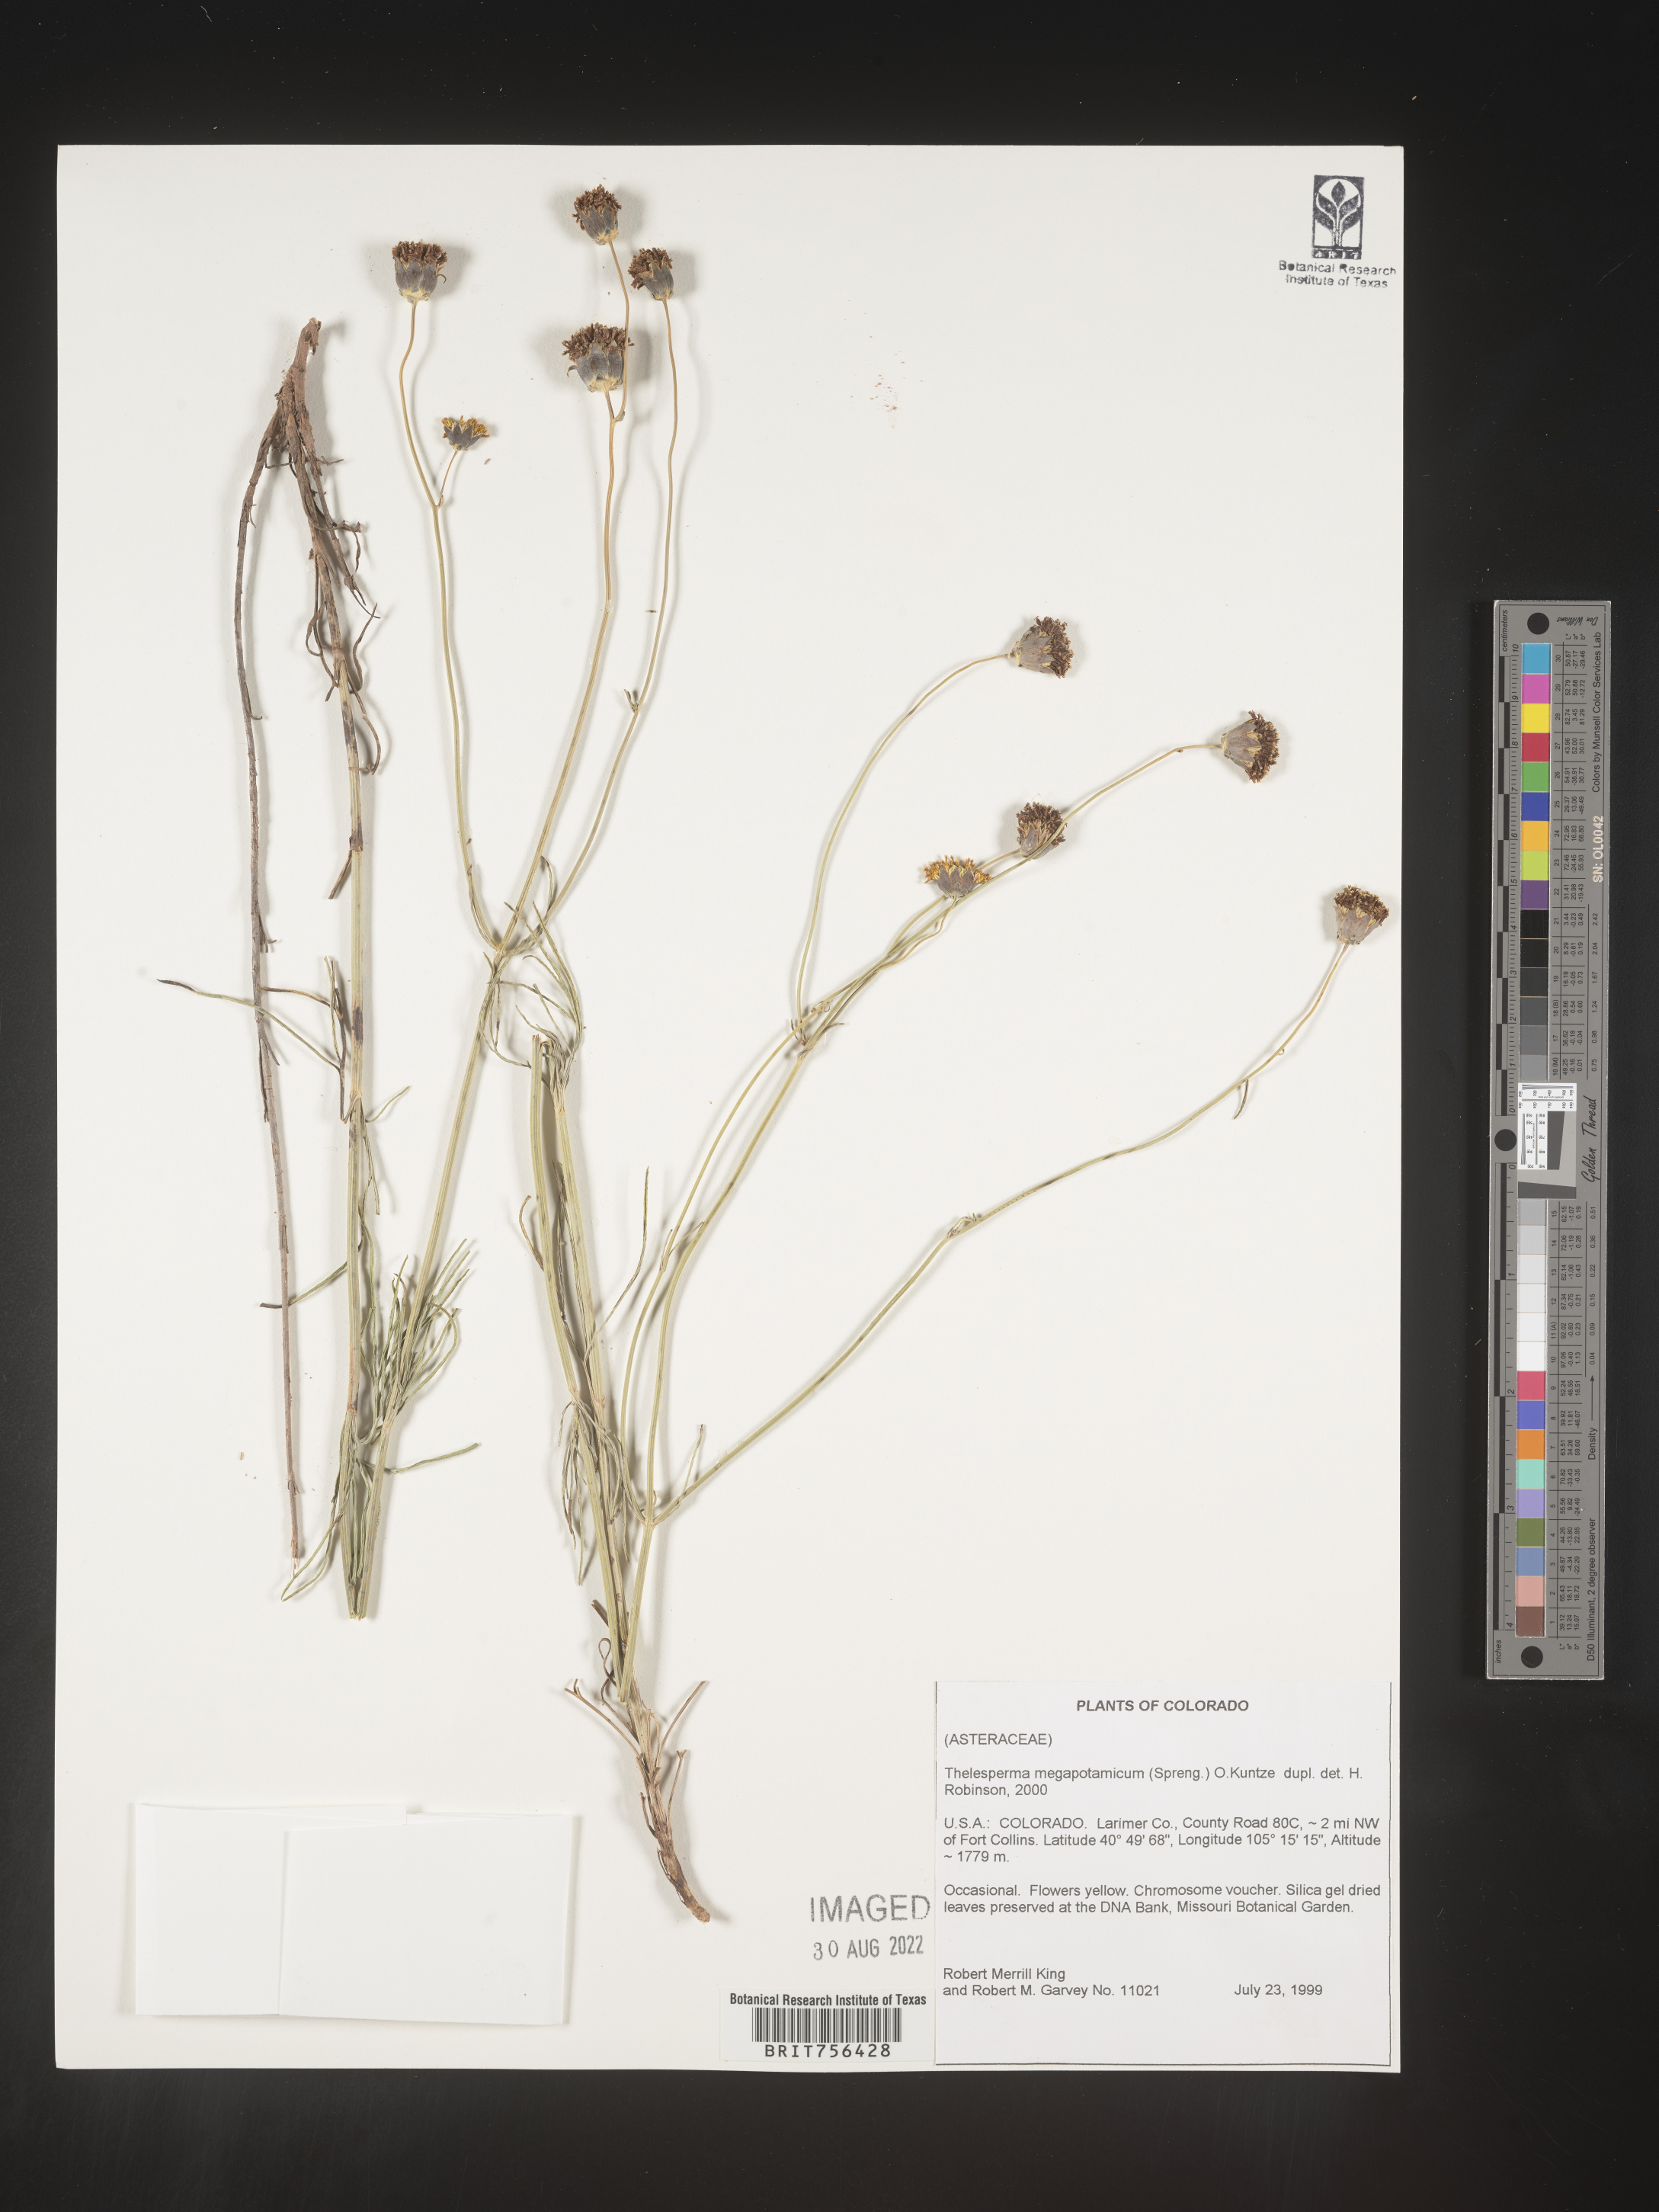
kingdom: Plantae
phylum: Tracheophyta
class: Magnoliopsida
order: Asterales
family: Asteraceae
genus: Thelesperma
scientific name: Thelesperma megapotamicum
